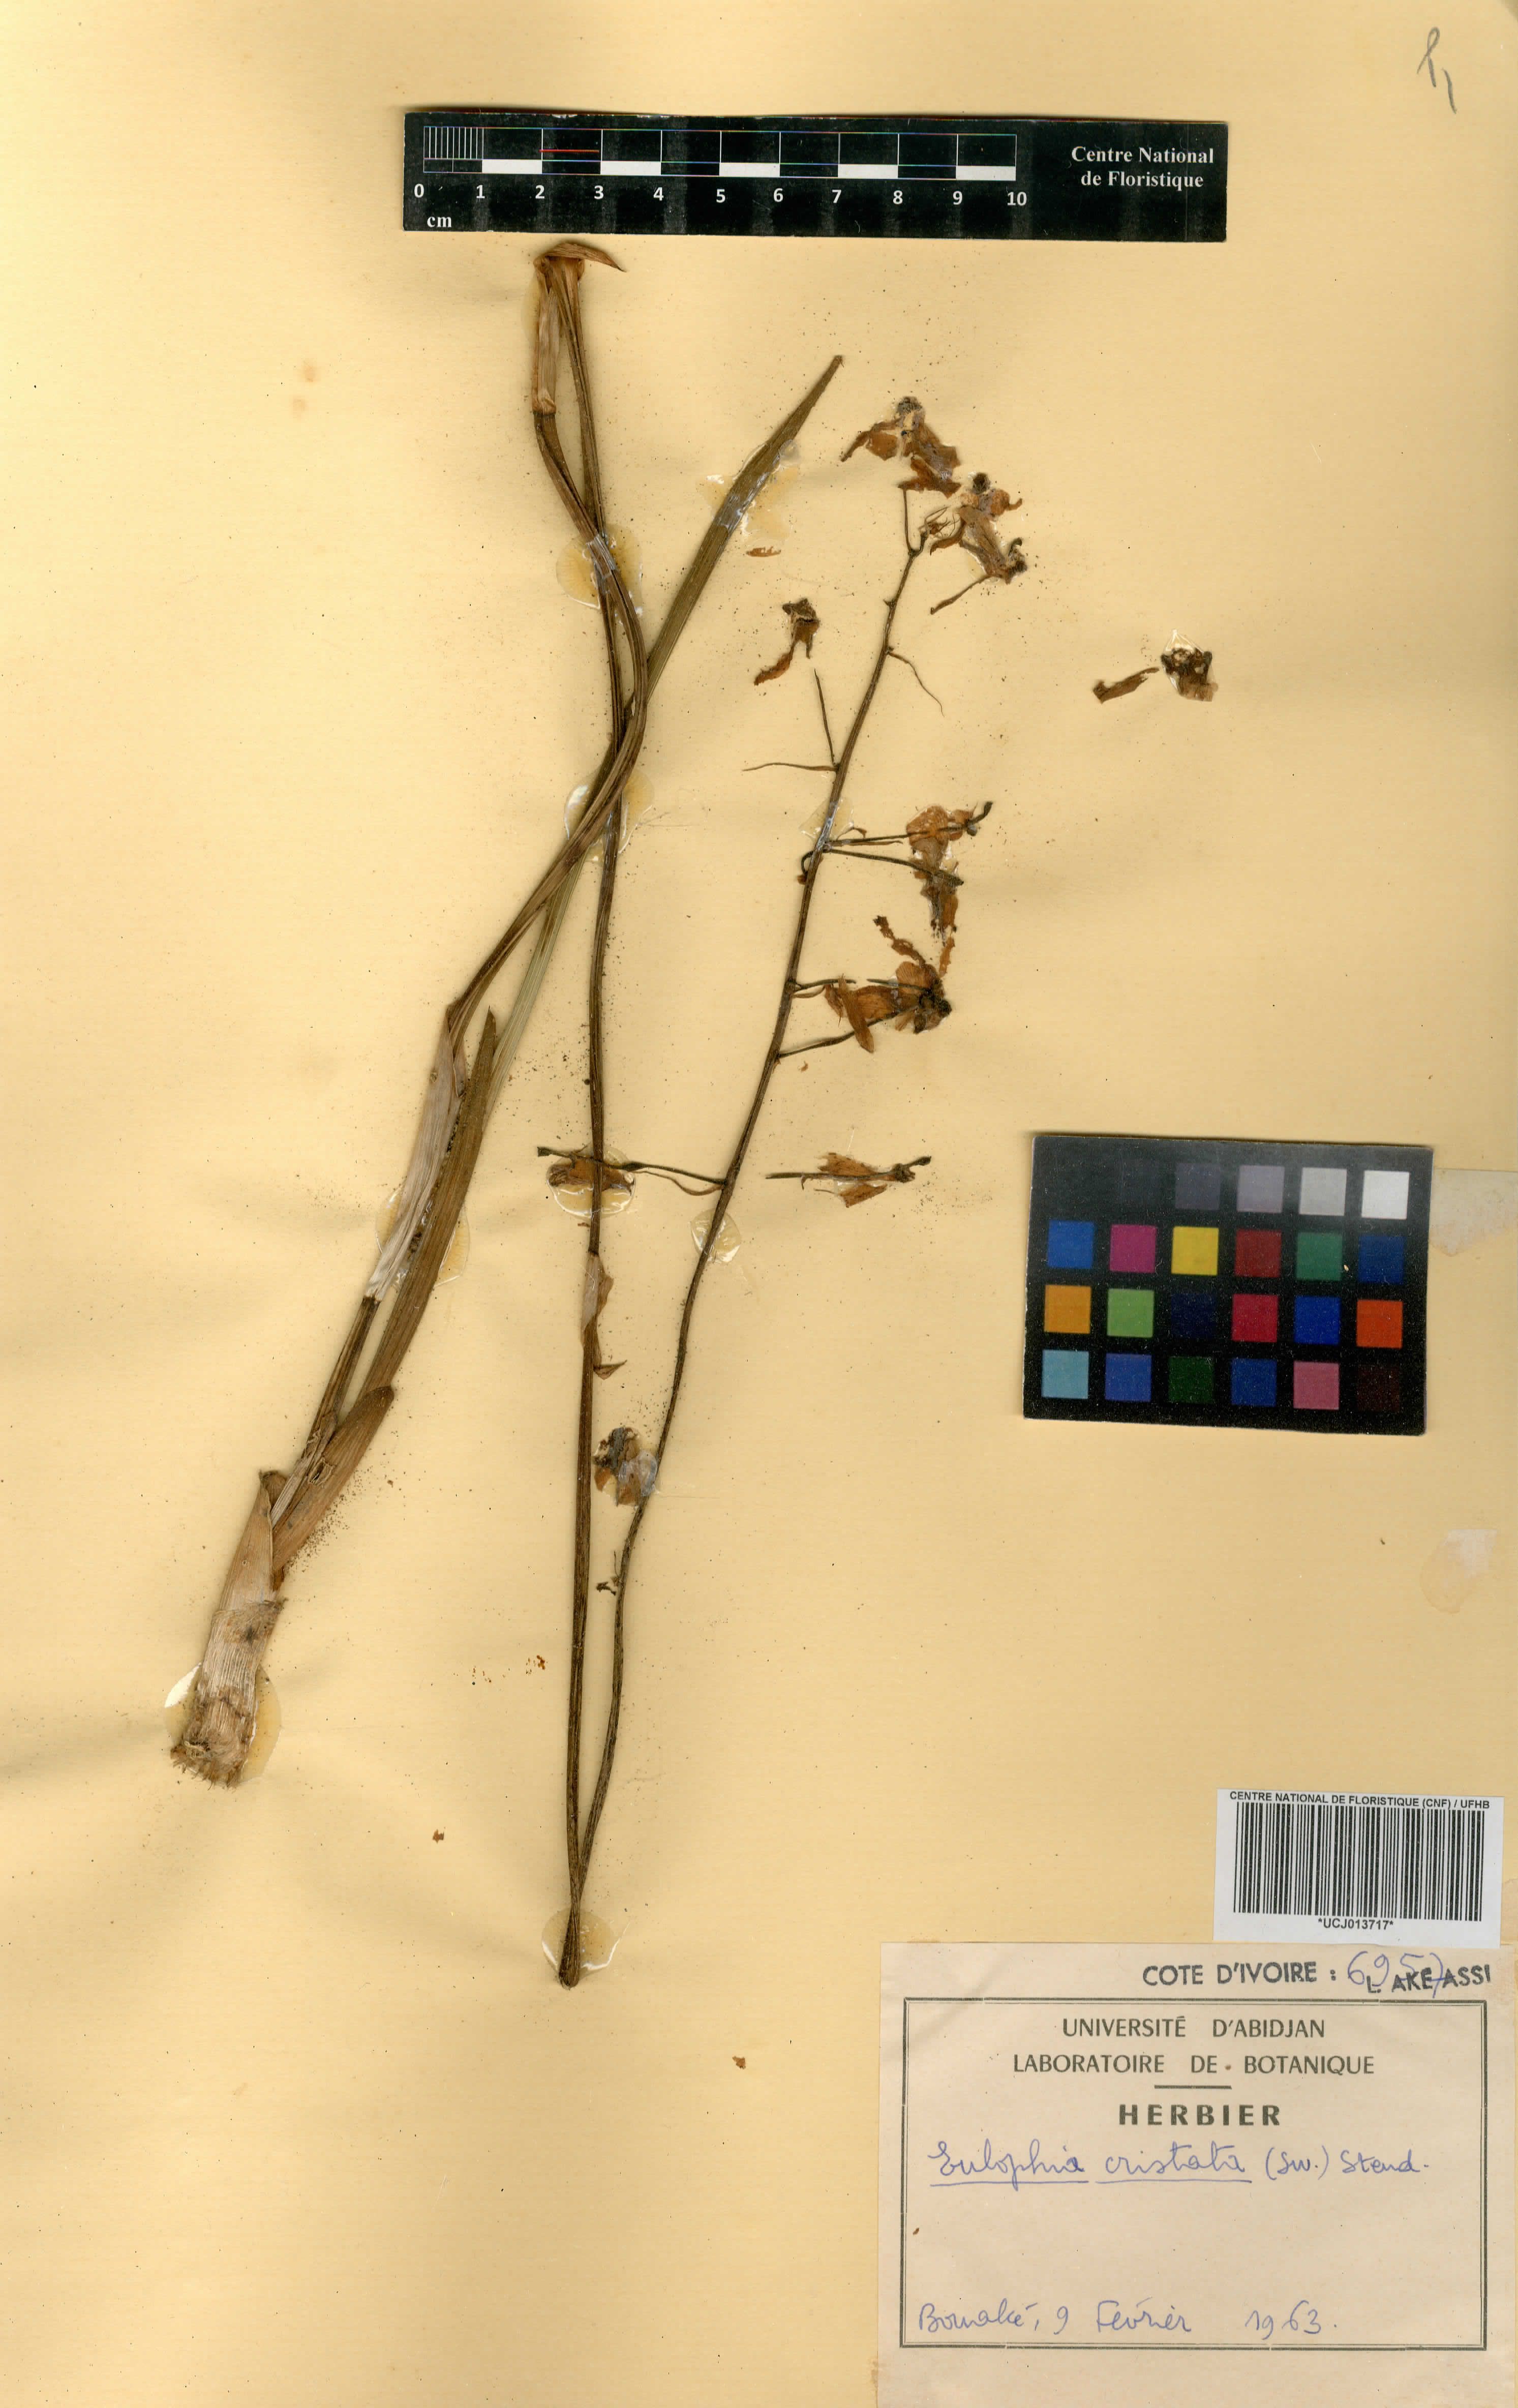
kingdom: Plantae
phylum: Tracheophyta
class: Liliopsida
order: Asparagales
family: Orchidaceae
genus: Eulophia
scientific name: Eulophia cristata
